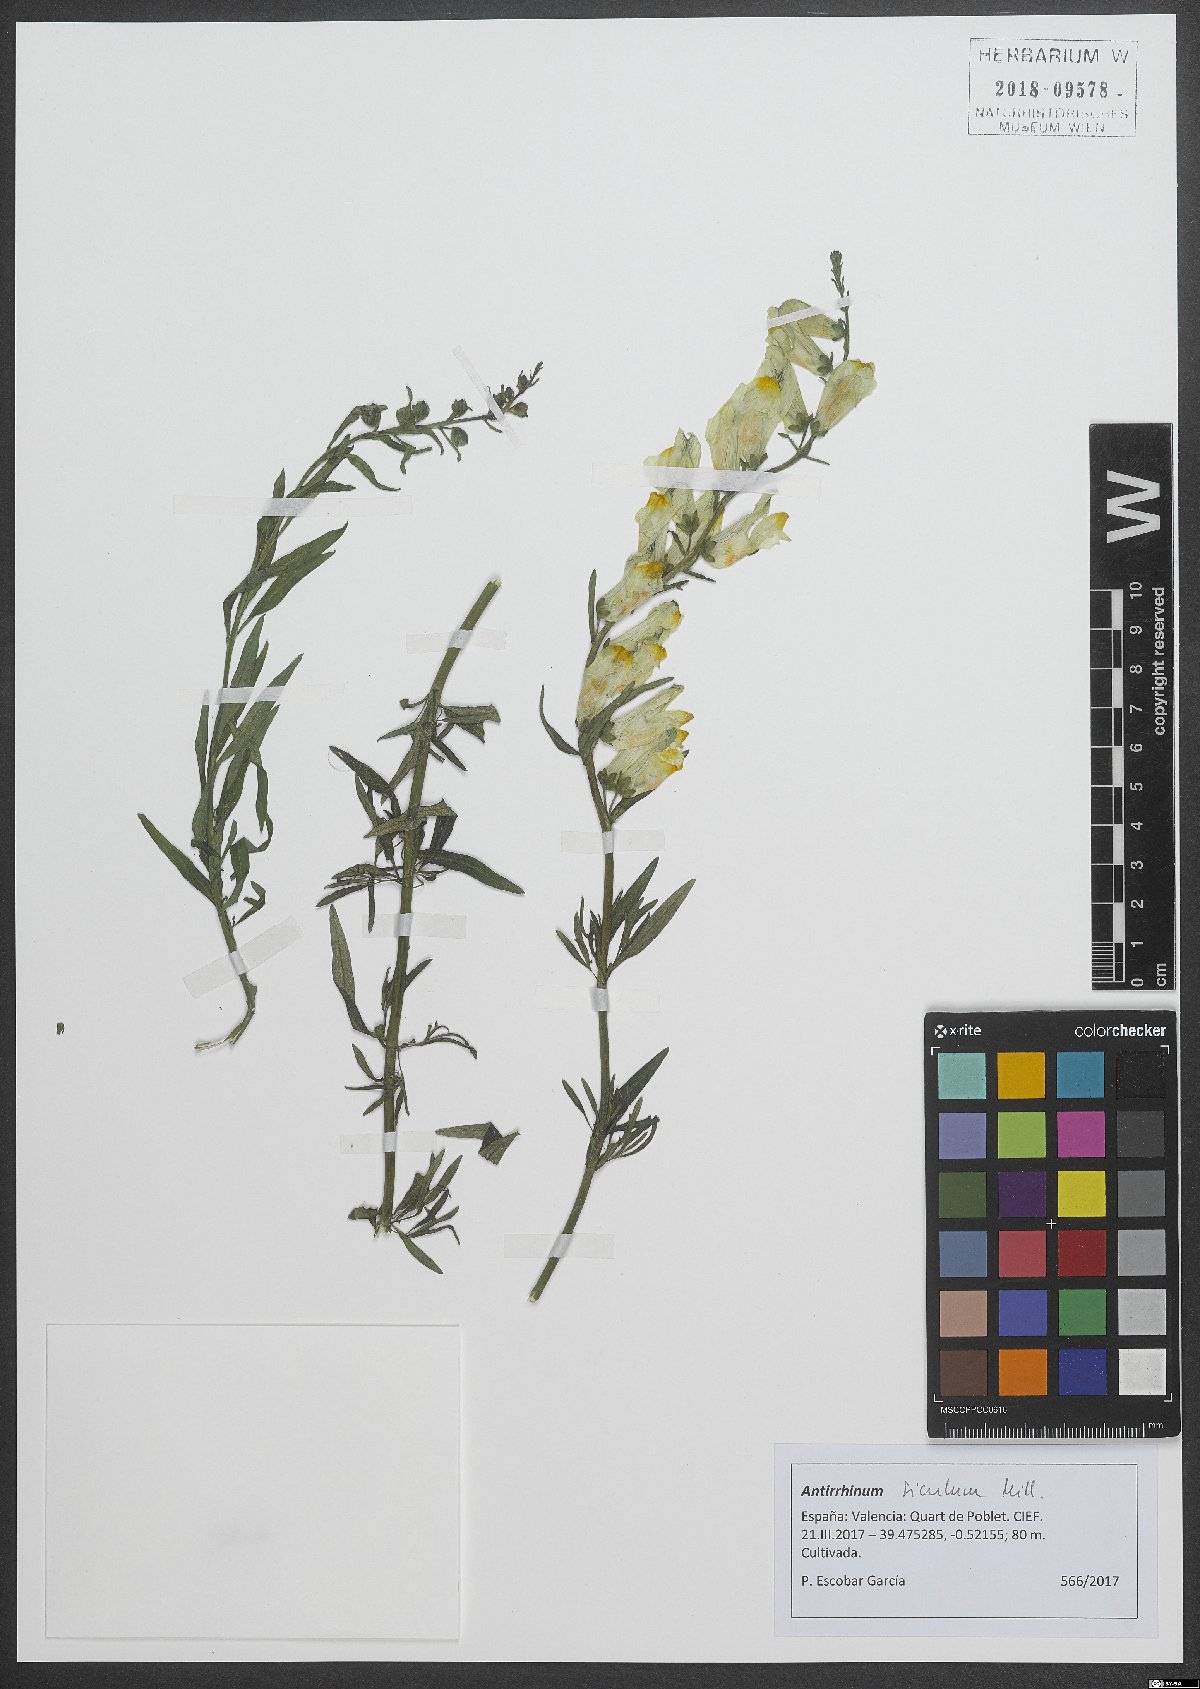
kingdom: Plantae
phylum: Tracheophyta
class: Magnoliopsida
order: Lamiales
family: Plantaginaceae
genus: Antirrhinum
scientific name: Antirrhinum siculum
